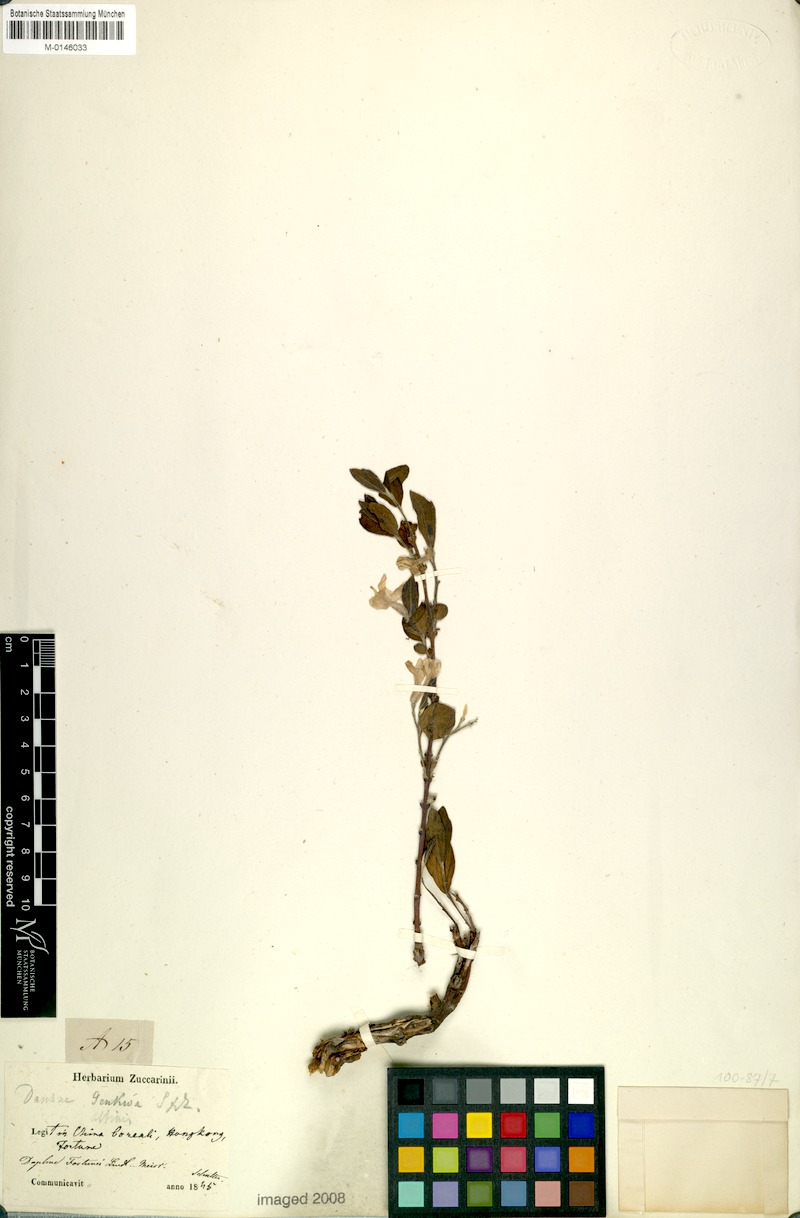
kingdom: Plantae
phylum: Tracheophyta
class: Magnoliopsida
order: Malvales
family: Thymelaeaceae
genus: Wikstroemia
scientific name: Wikstroemia genkwa
